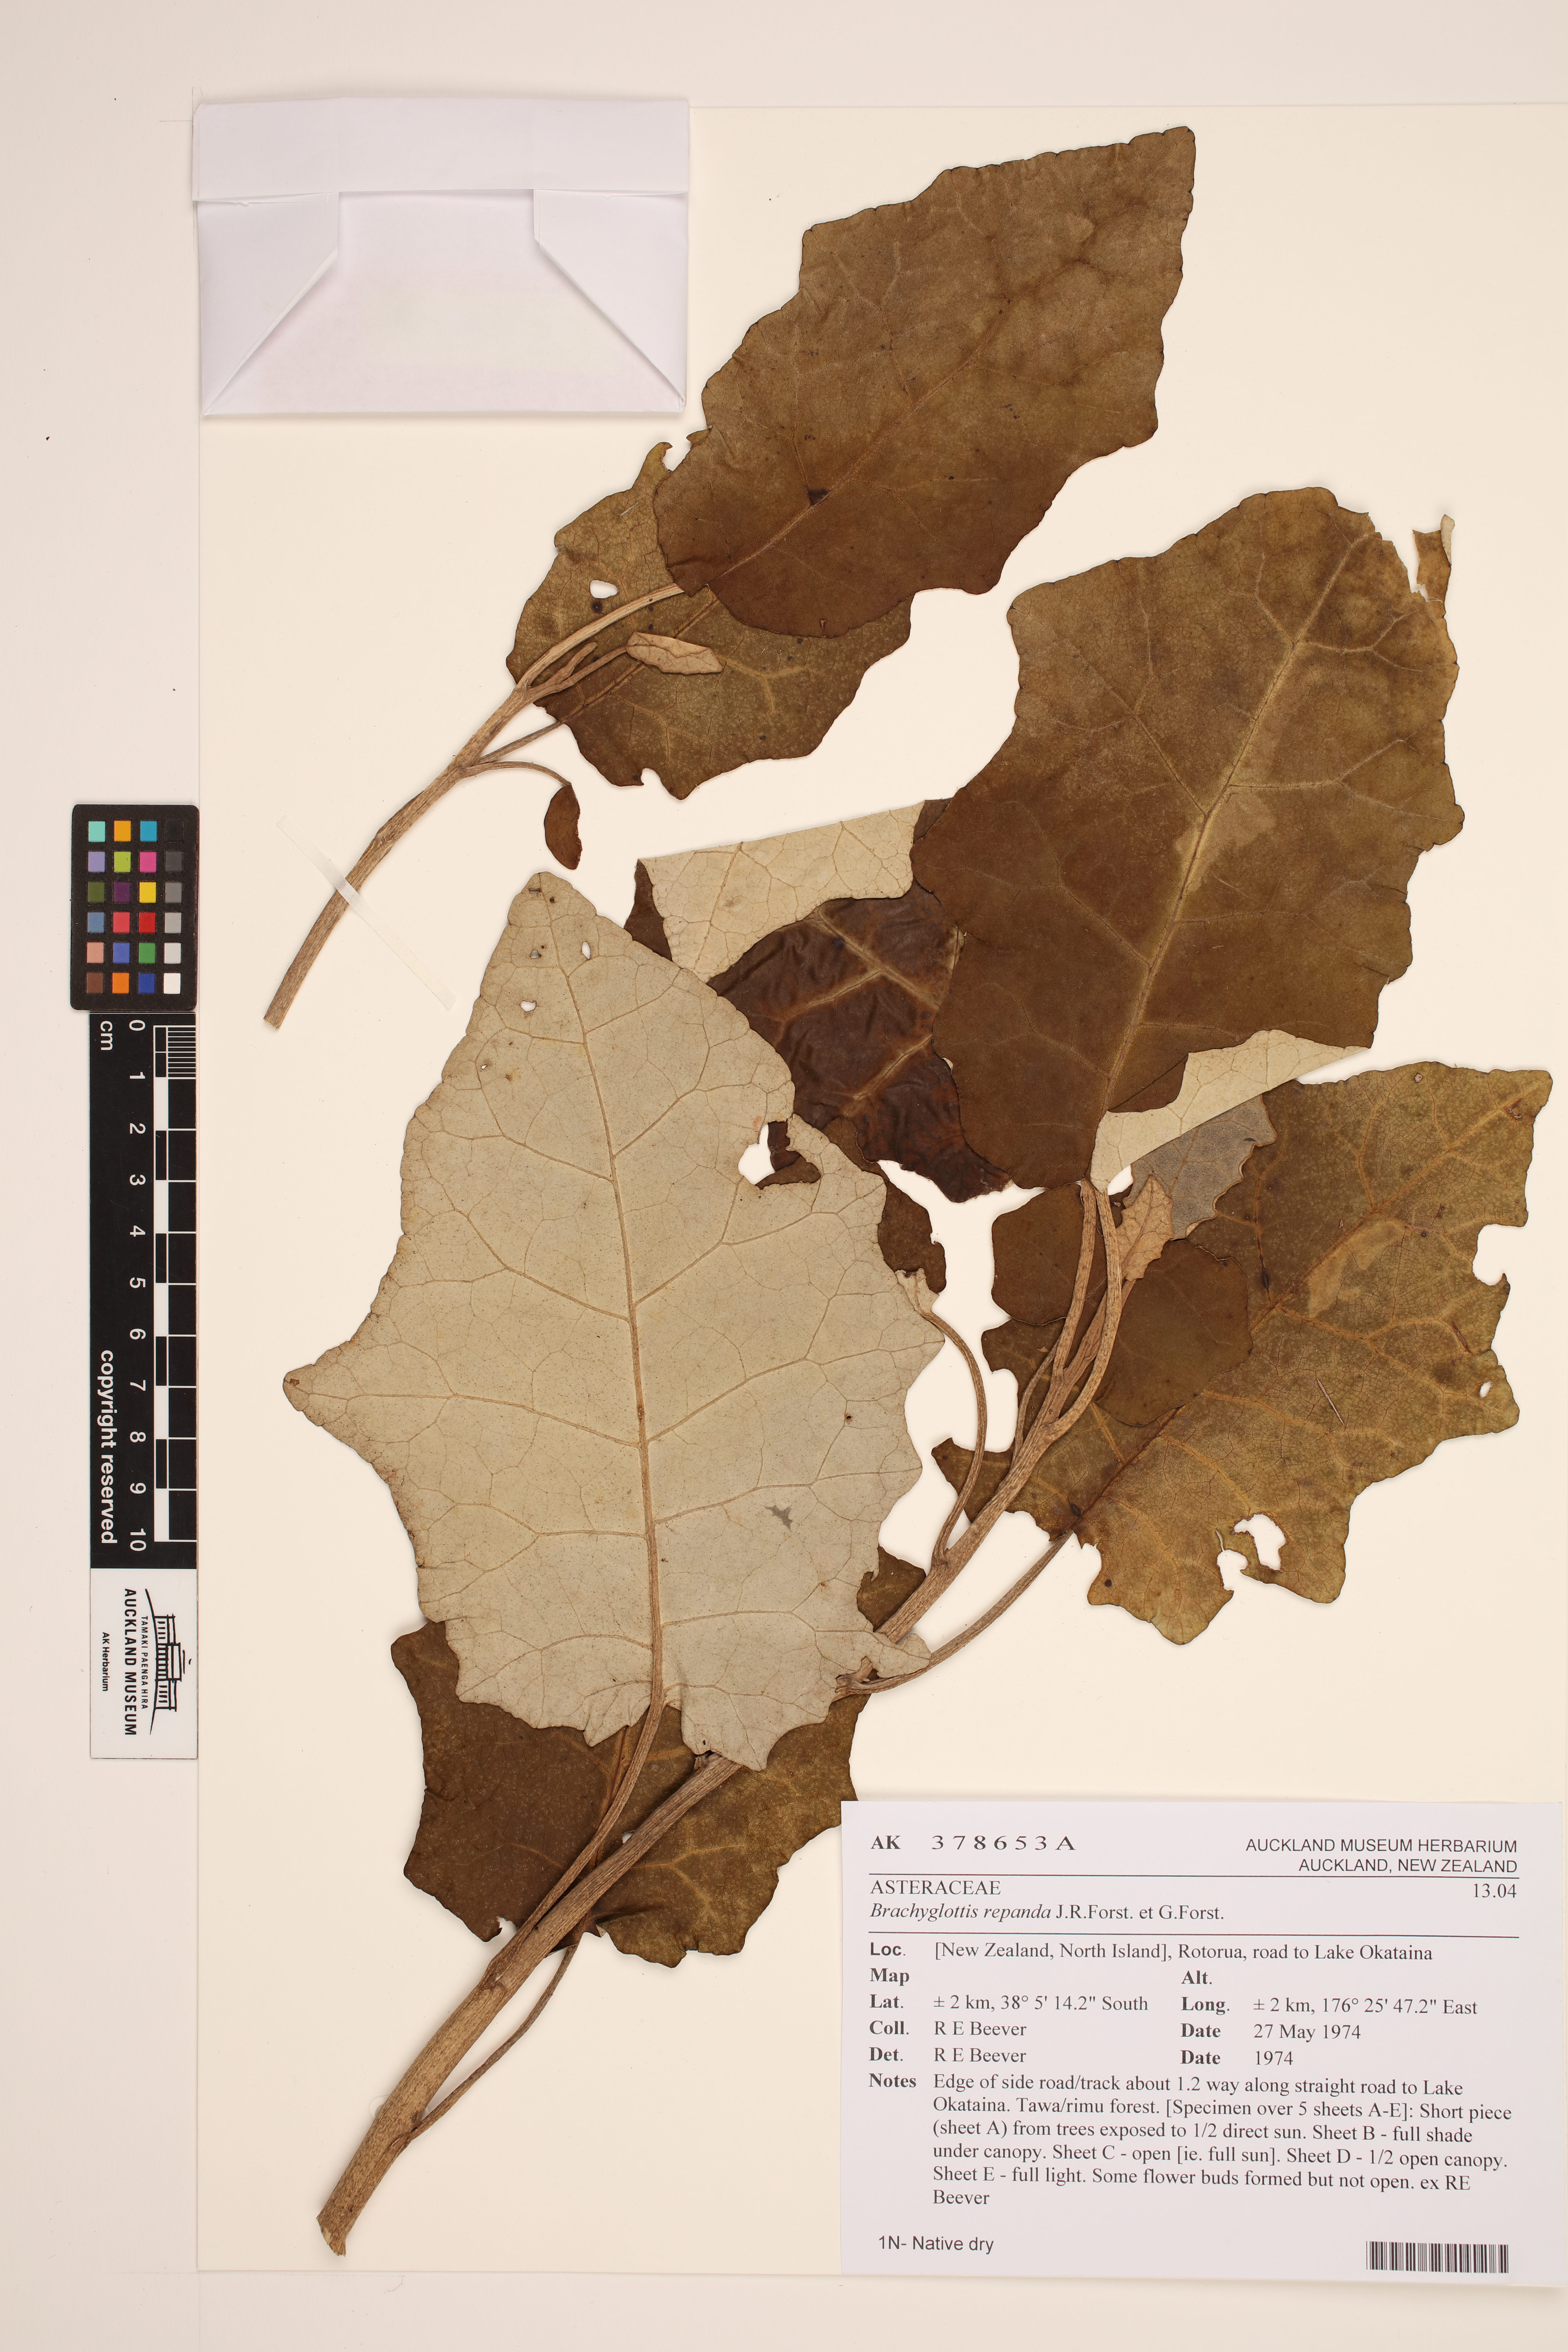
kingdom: Plantae
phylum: Tracheophyta
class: Magnoliopsida
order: Asterales
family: Asteraceae
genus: Brachyglottis
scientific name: Brachyglottis repanda
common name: Hedge ragwort
